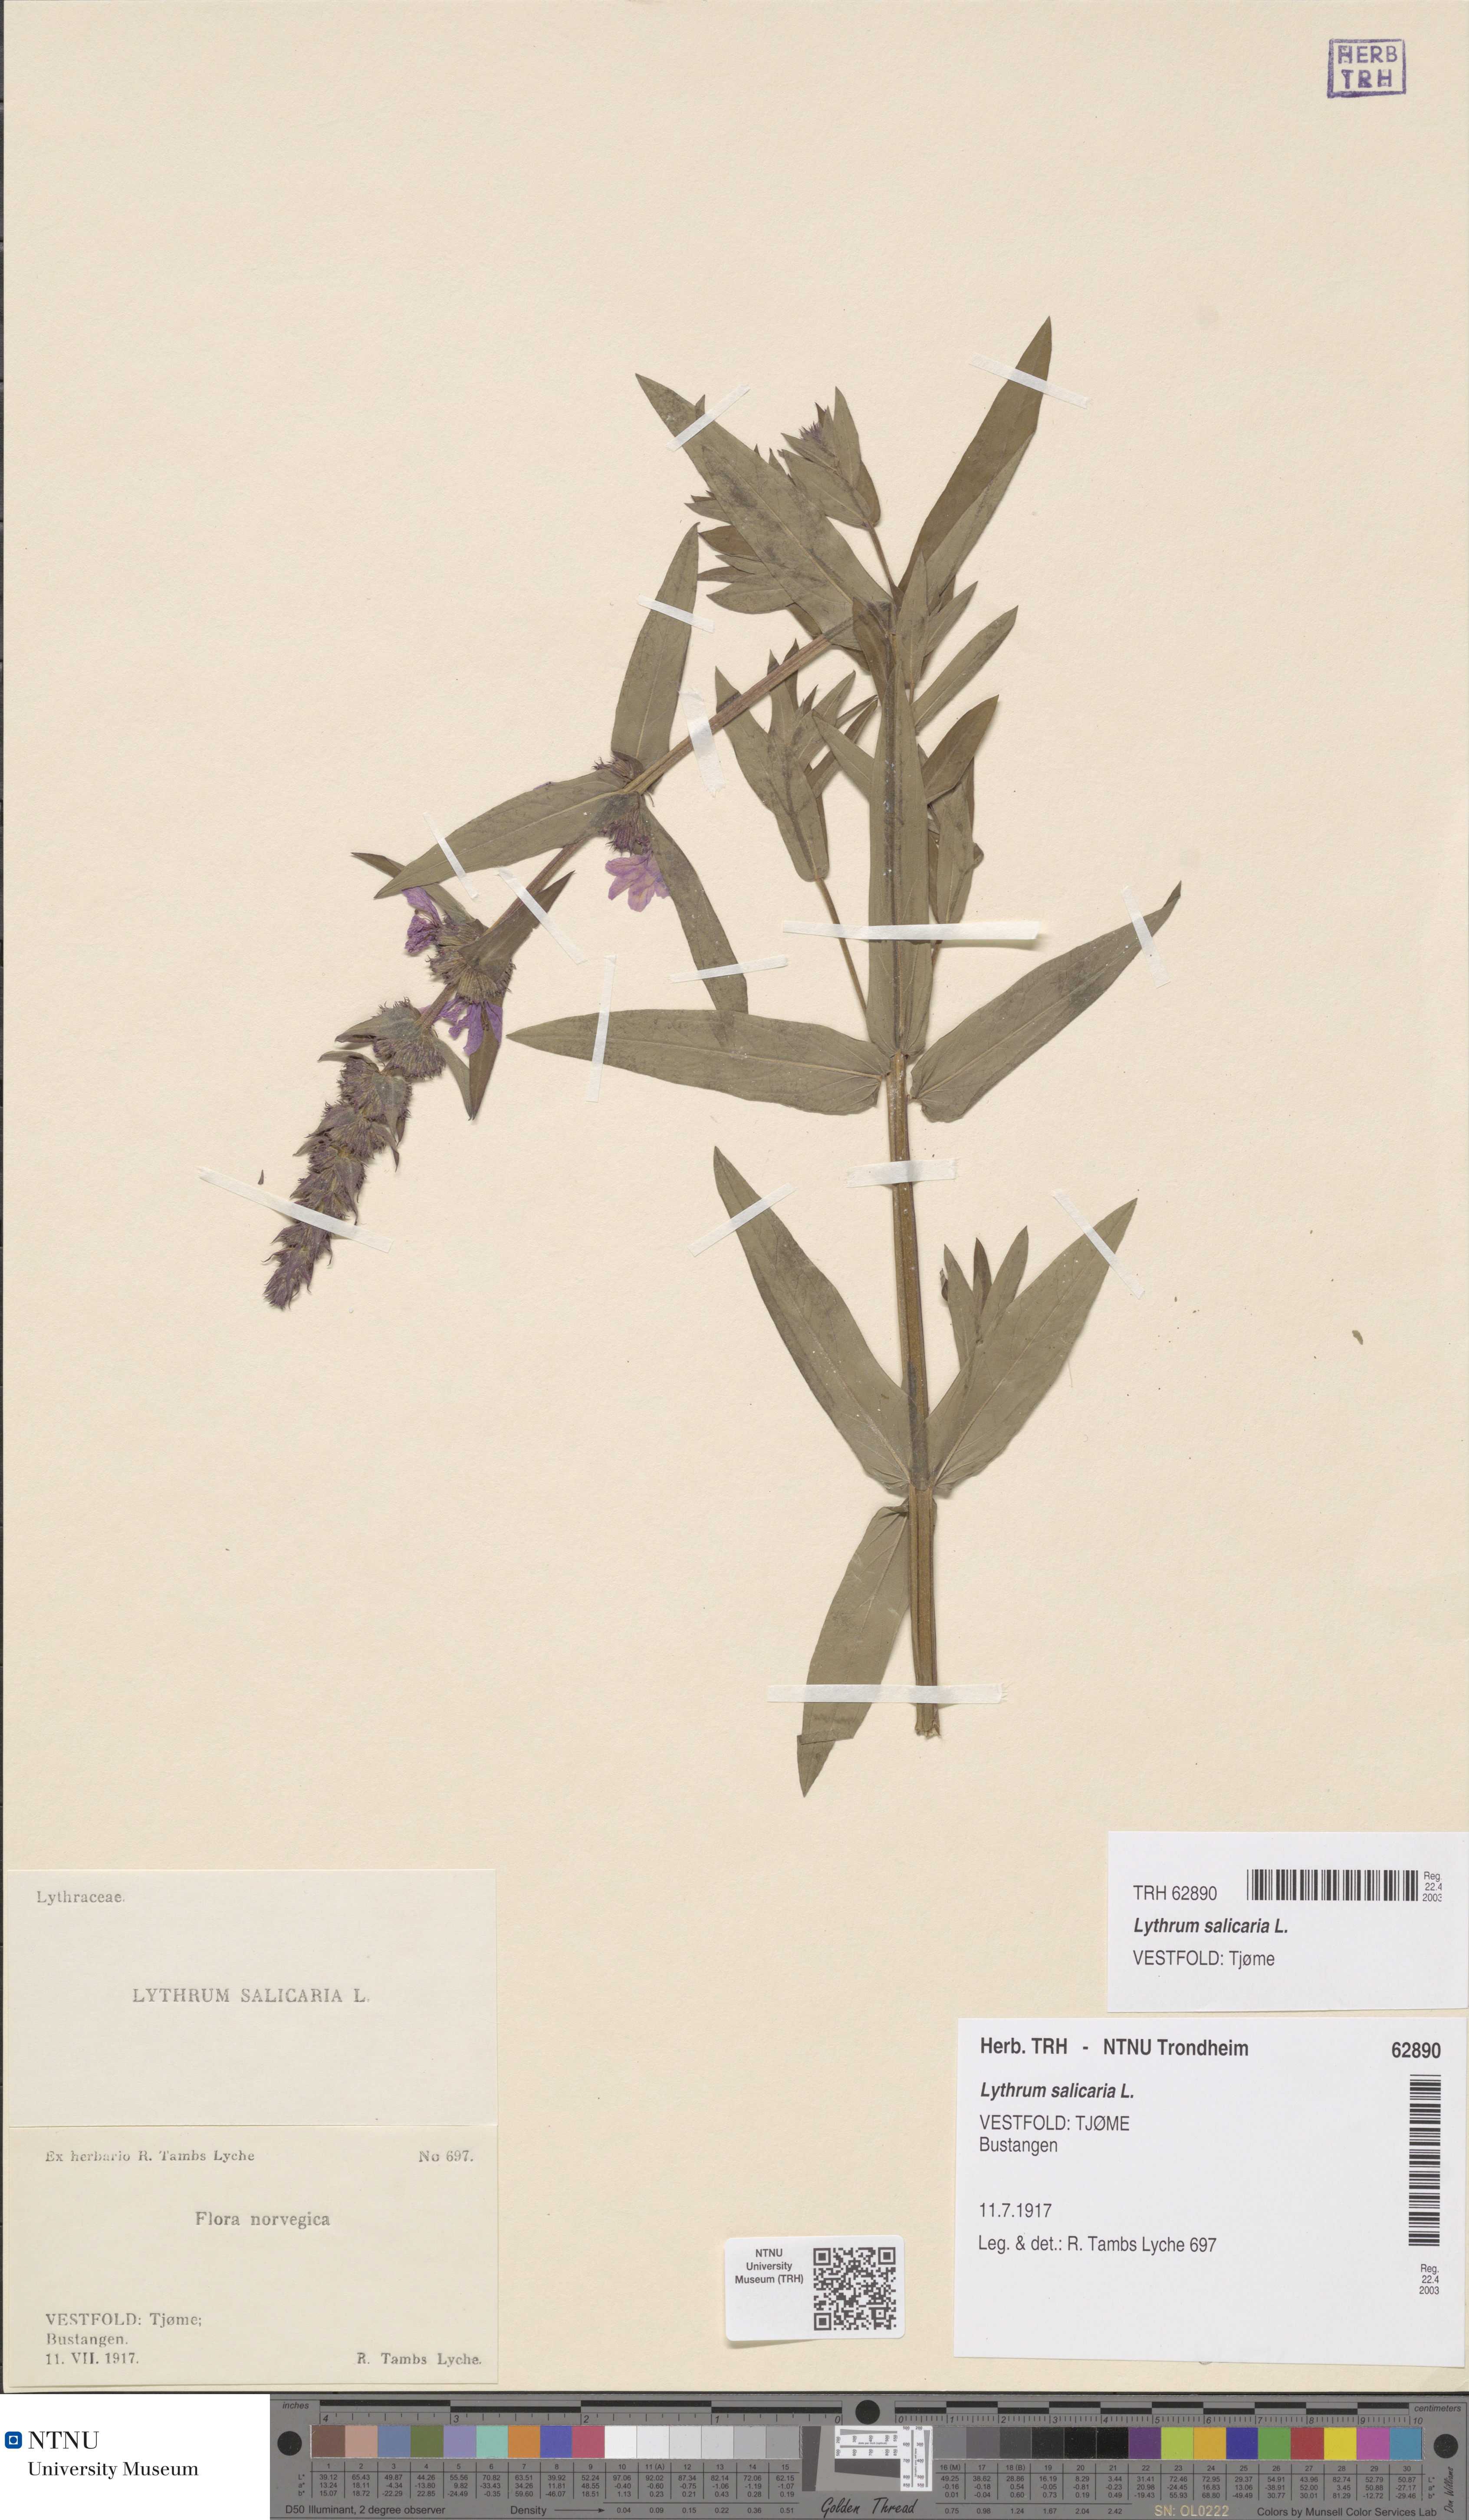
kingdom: Plantae
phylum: Tracheophyta
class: Magnoliopsida
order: Myrtales
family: Lythraceae
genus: Lythrum
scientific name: Lythrum salicaria
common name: Purple loosestrife
